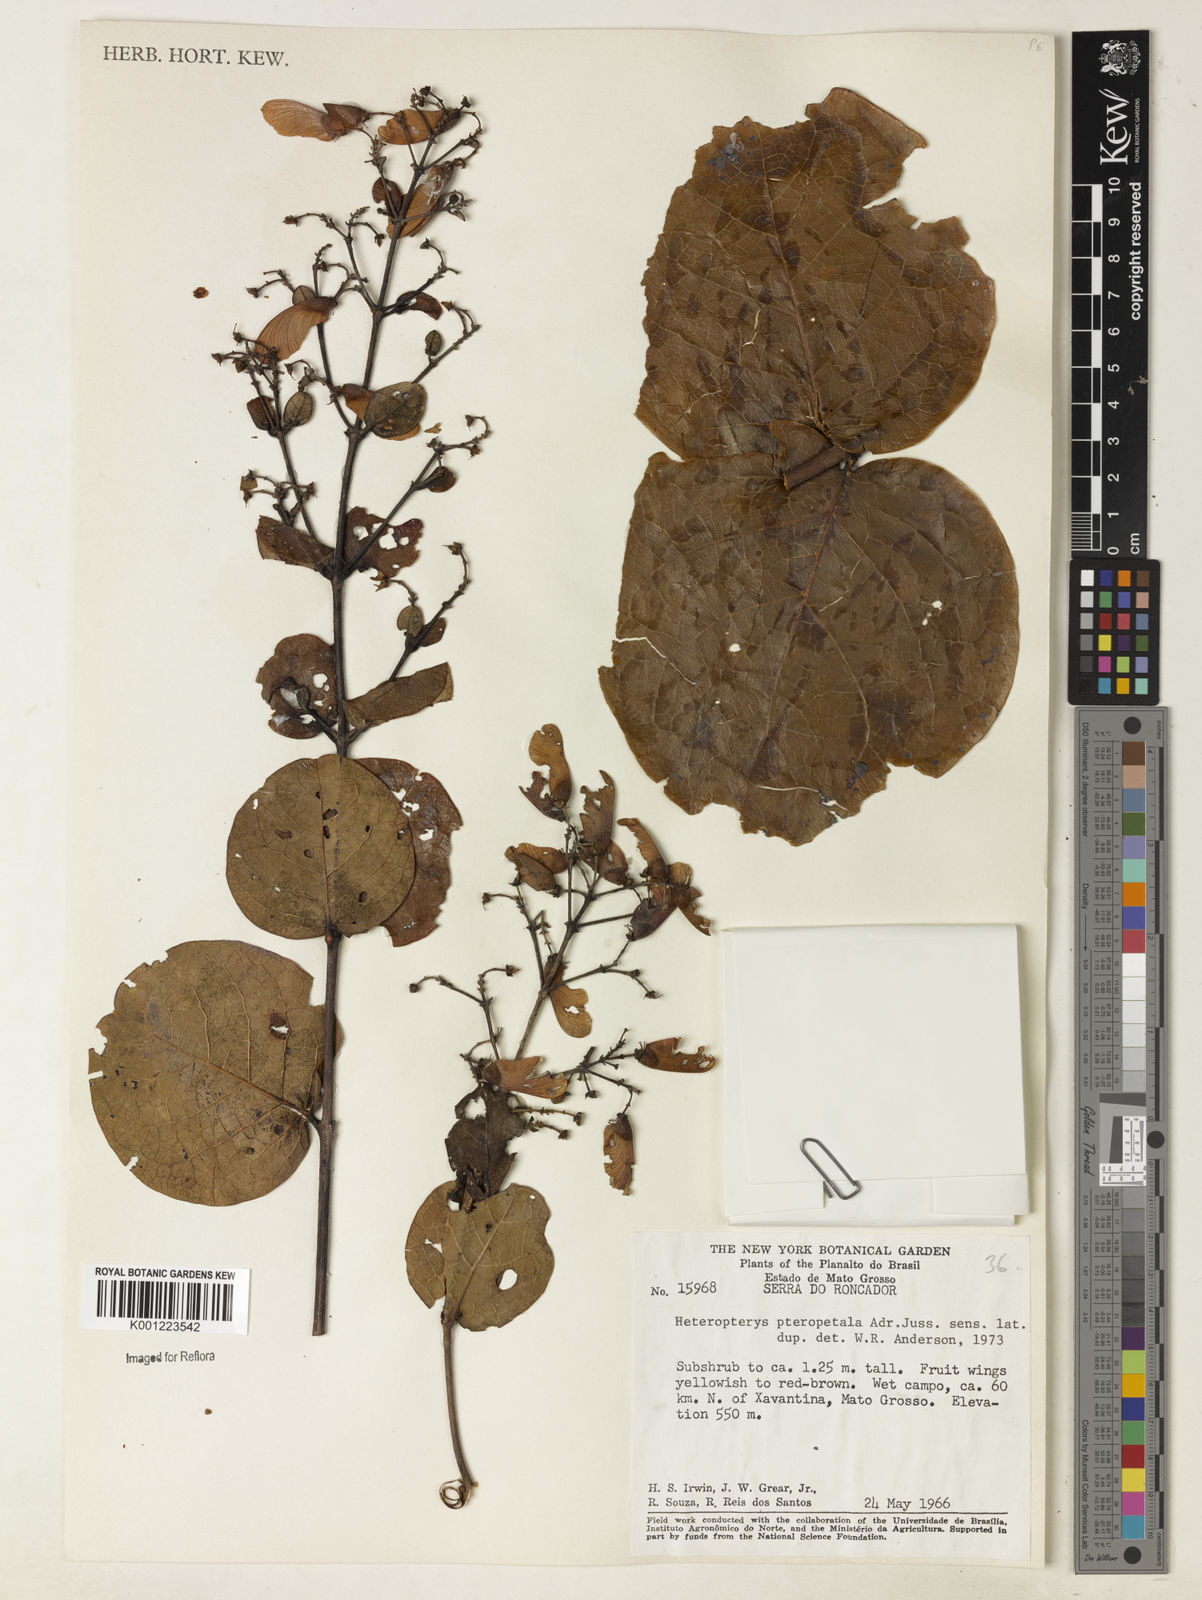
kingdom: Plantae
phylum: Tracheophyta
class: Magnoliopsida
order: Malpighiales
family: Malpighiaceae
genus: Heteropterys
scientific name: Heteropterys pteropetala
